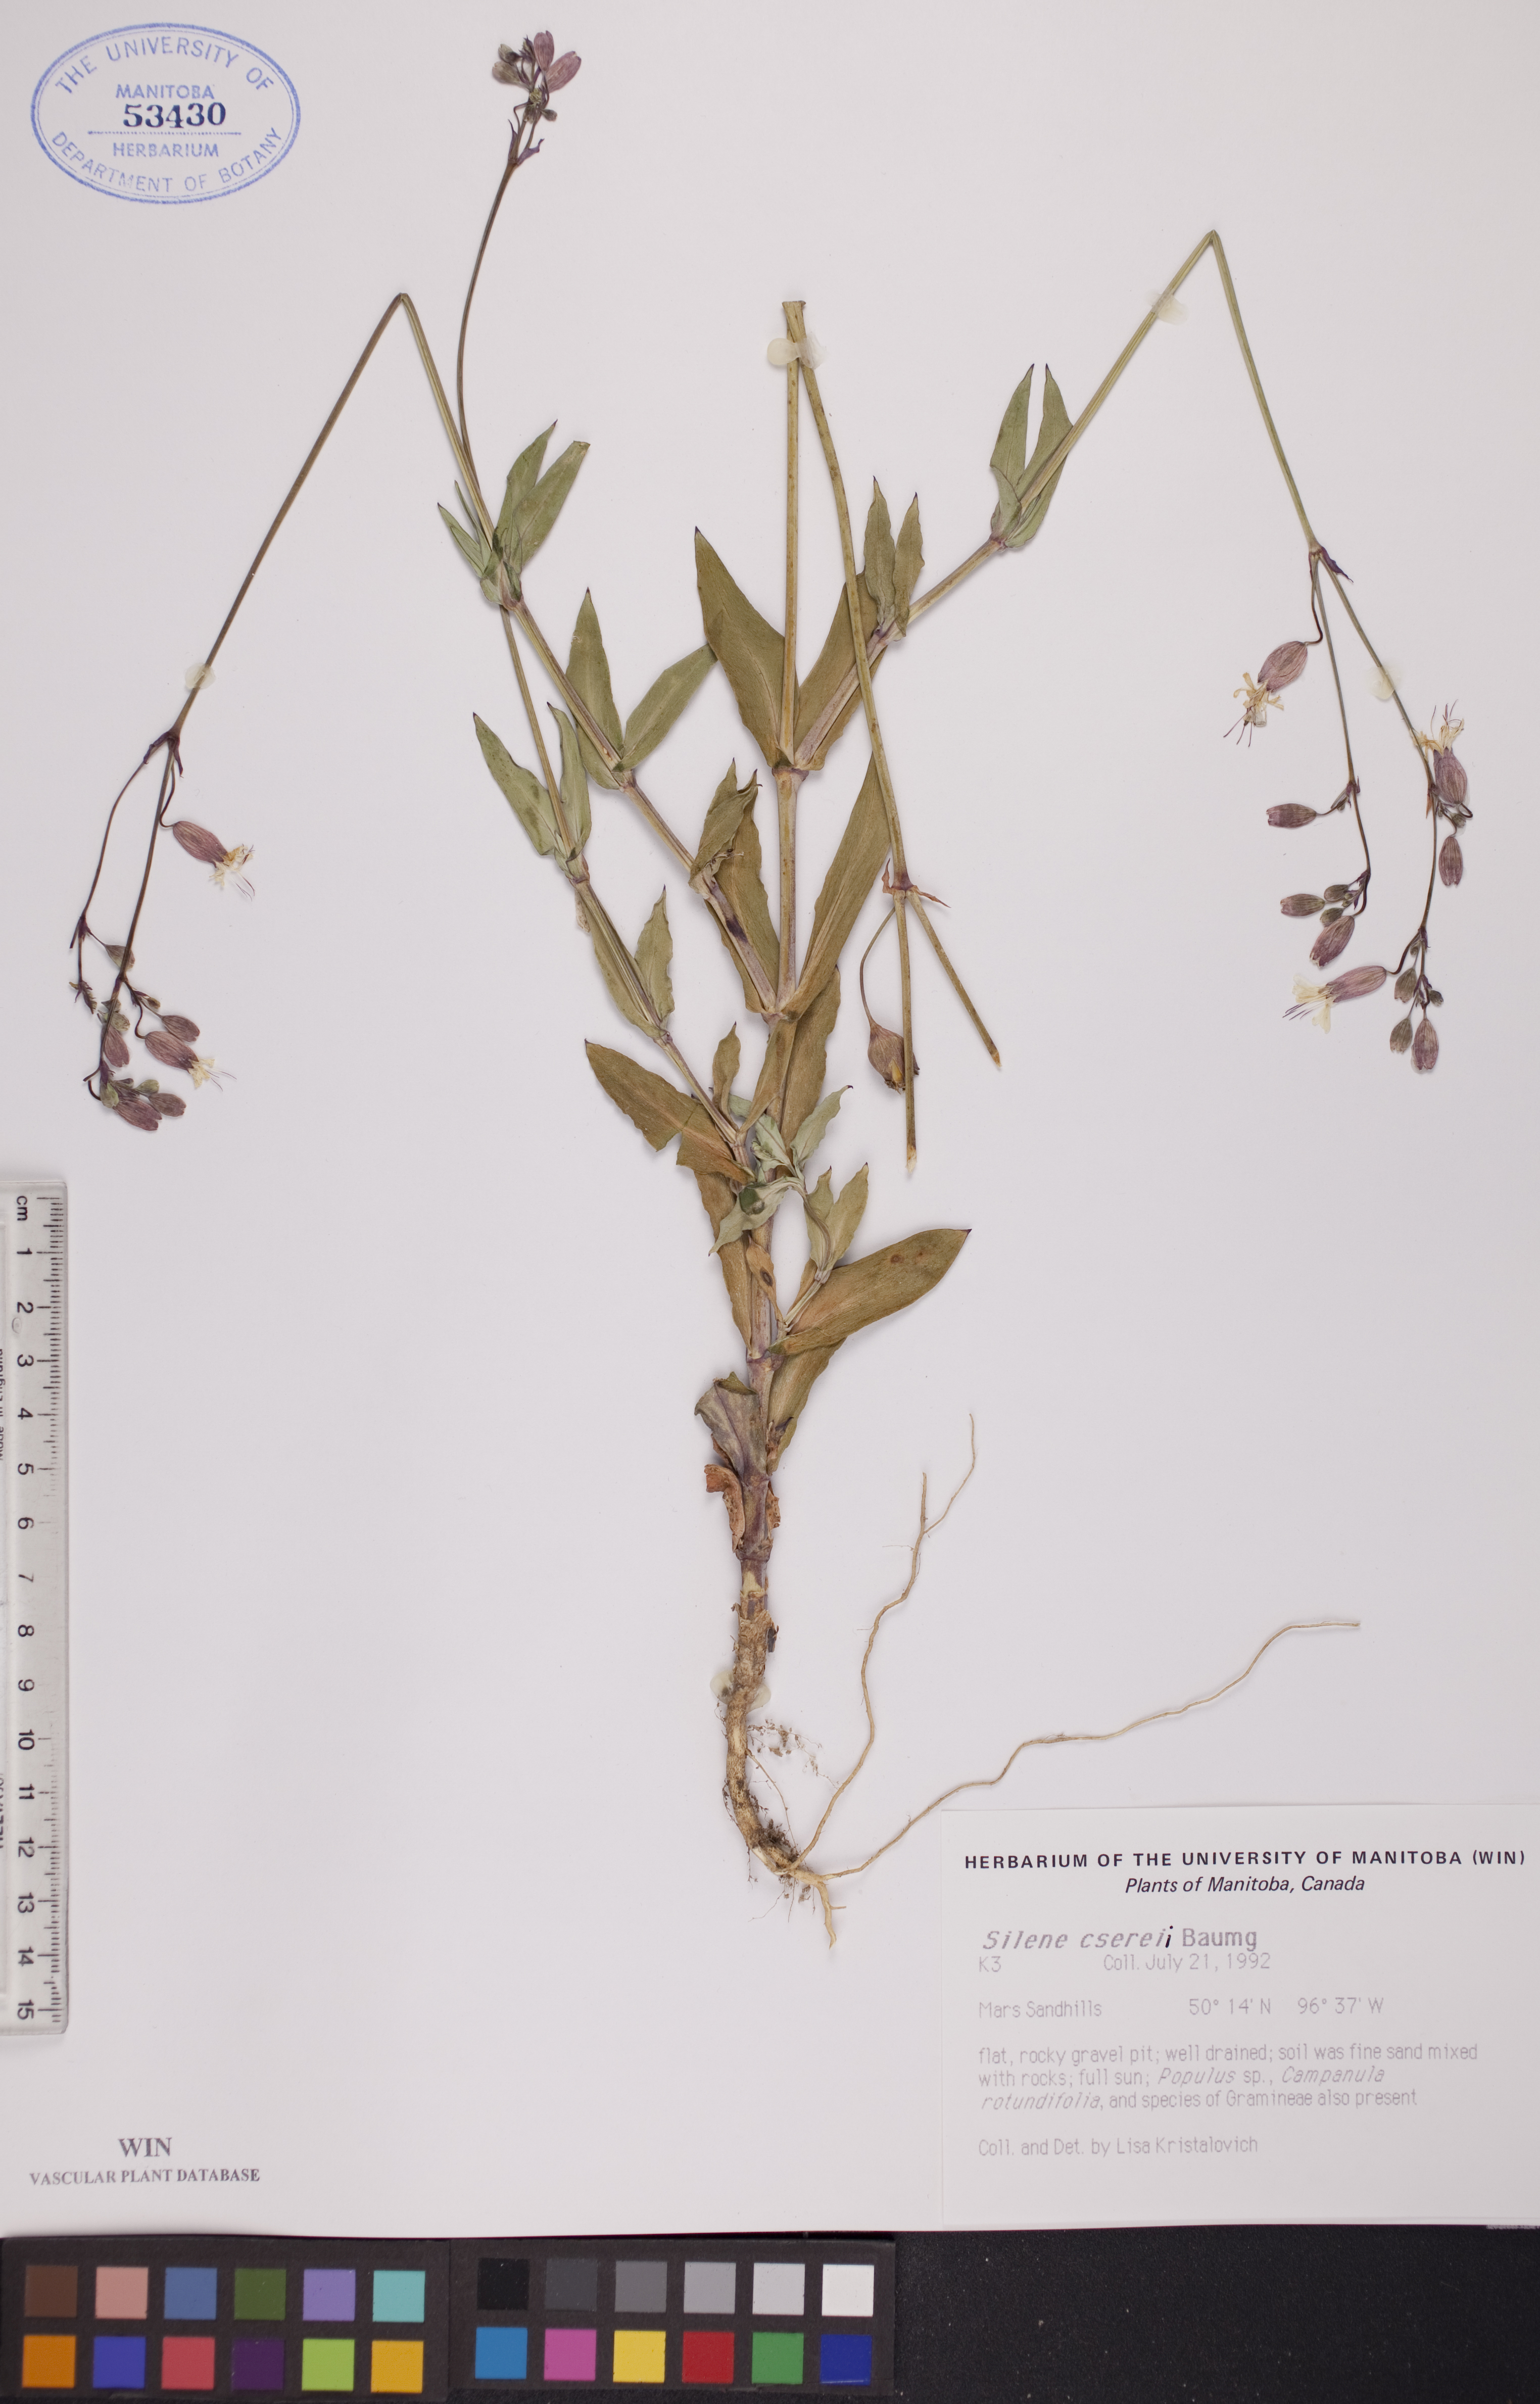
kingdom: Plantae
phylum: Tracheophyta
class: Magnoliopsida
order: Caryophyllales
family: Caryophyllaceae
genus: Silene
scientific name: Silene csereii
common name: Balkan catchfly
